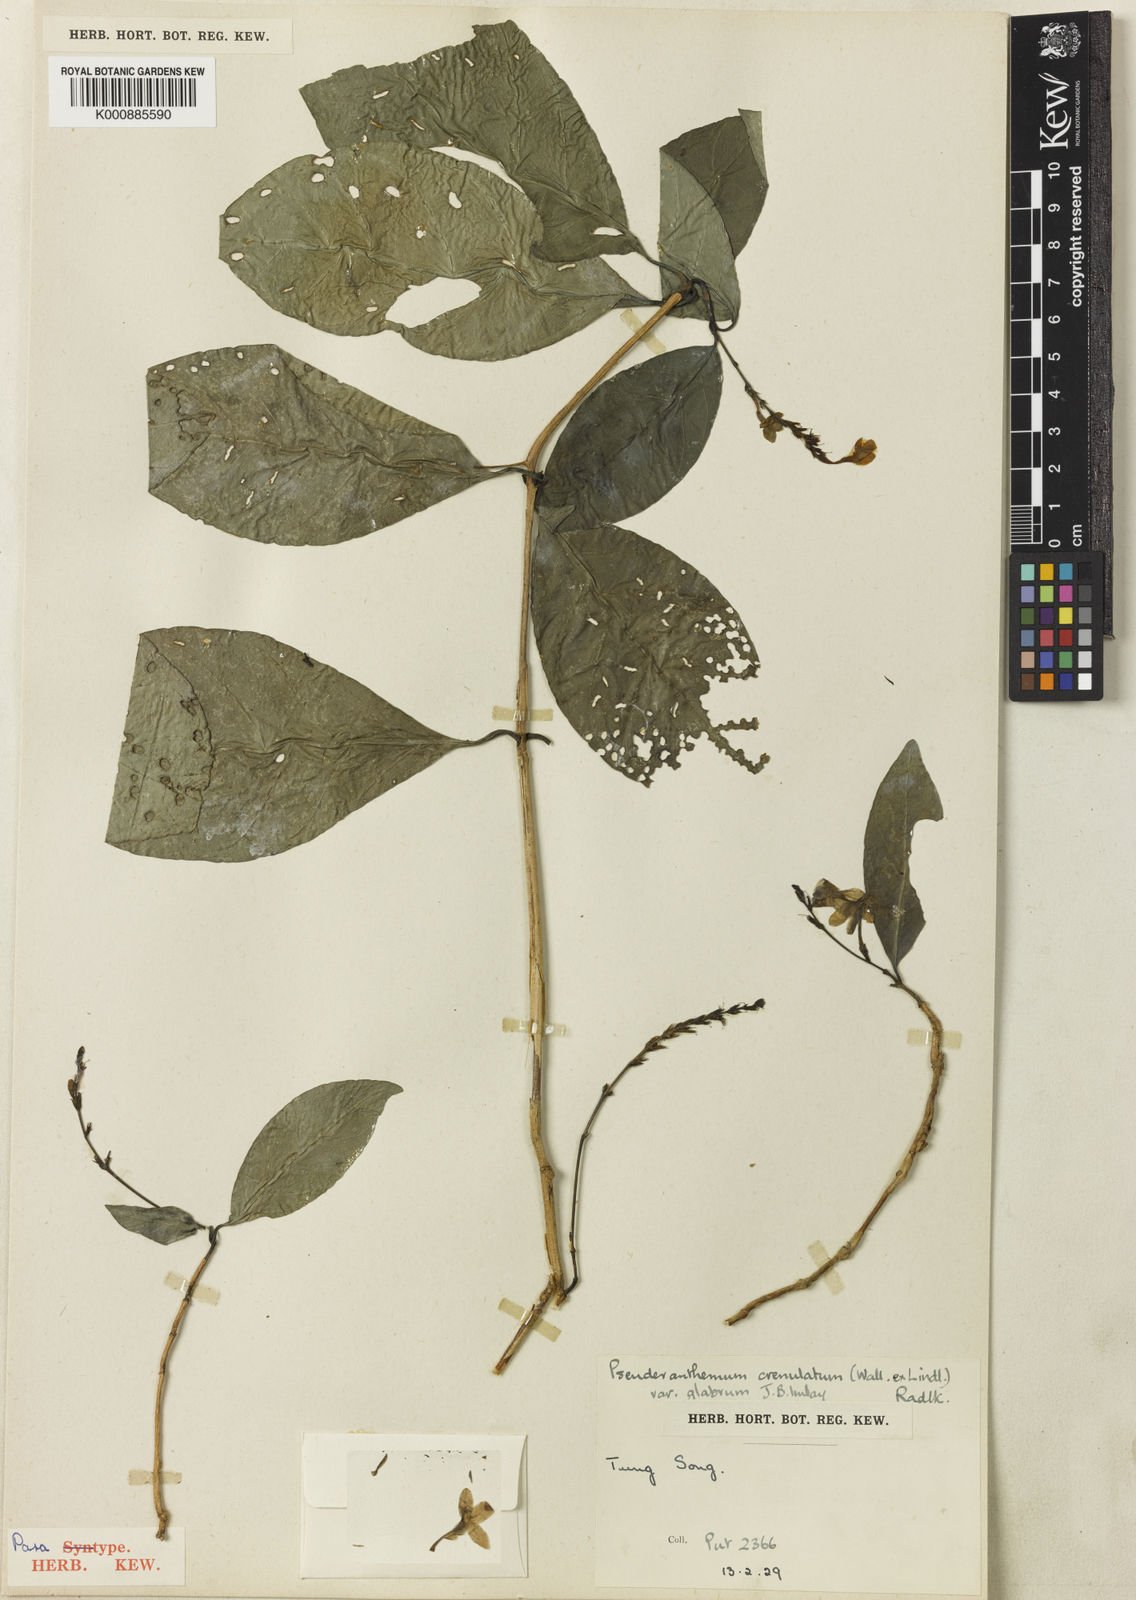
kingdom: Plantae
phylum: Tracheophyta
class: Magnoliopsida
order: Lamiales
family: Acanthaceae
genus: Pseuderanthemum
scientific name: Pseuderanthemum
